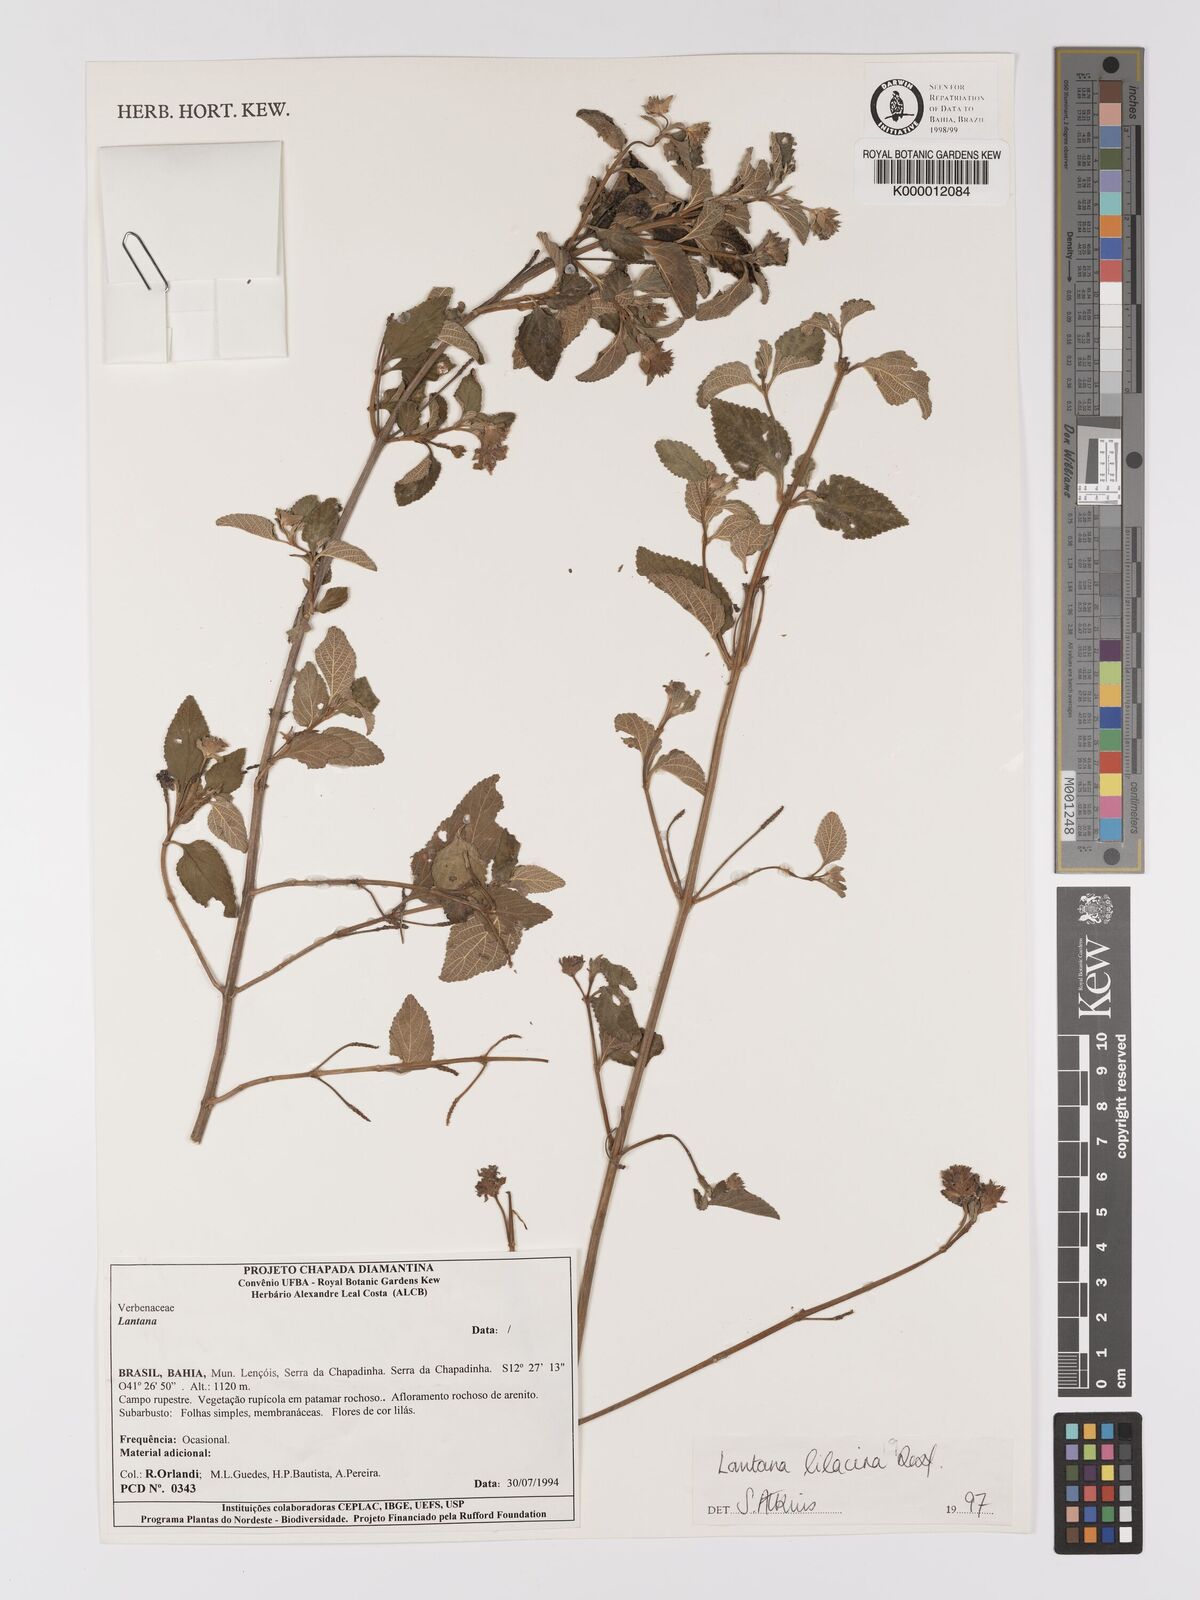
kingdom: Plantae
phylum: Tracheophyta
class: Magnoliopsida
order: Lamiales
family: Verbenaceae
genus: Lantana
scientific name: Lantana fucata
